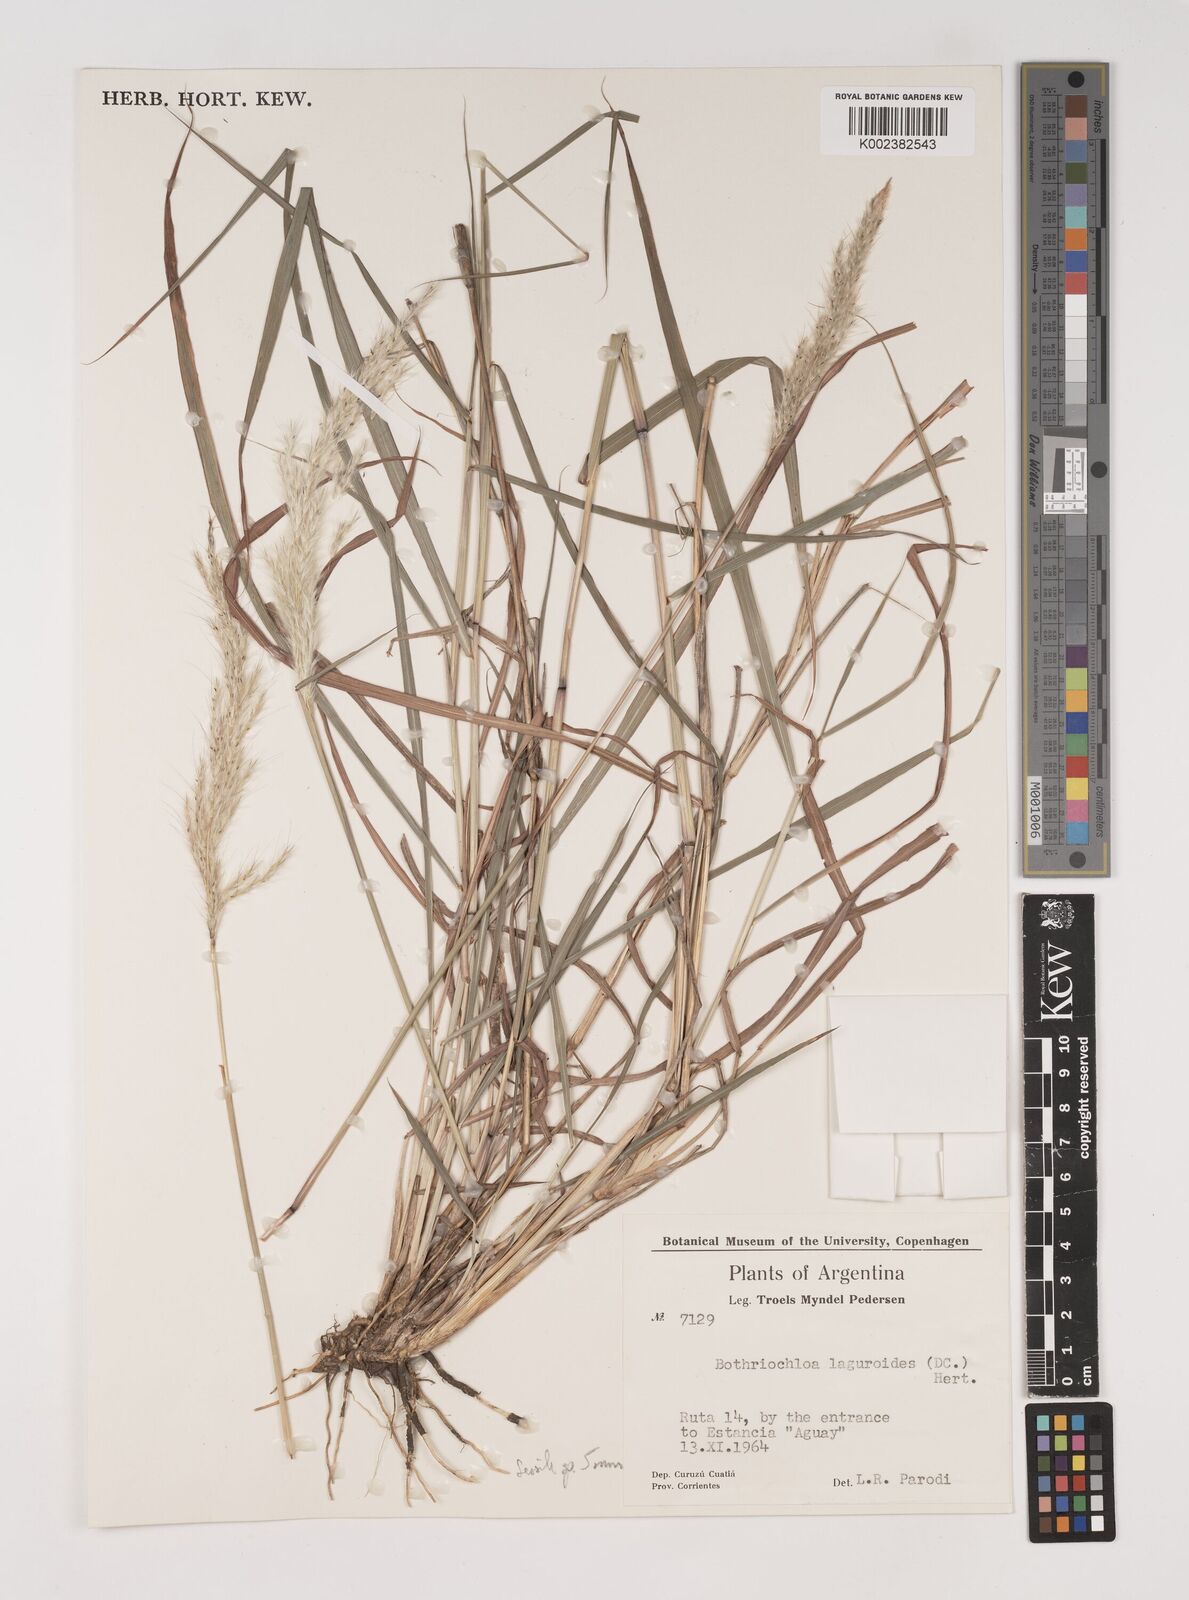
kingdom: Plantae
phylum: Tracheophyta
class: Liliopsida
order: Poales
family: Poaceae
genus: Bothriochloa
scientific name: Bothriochloa
